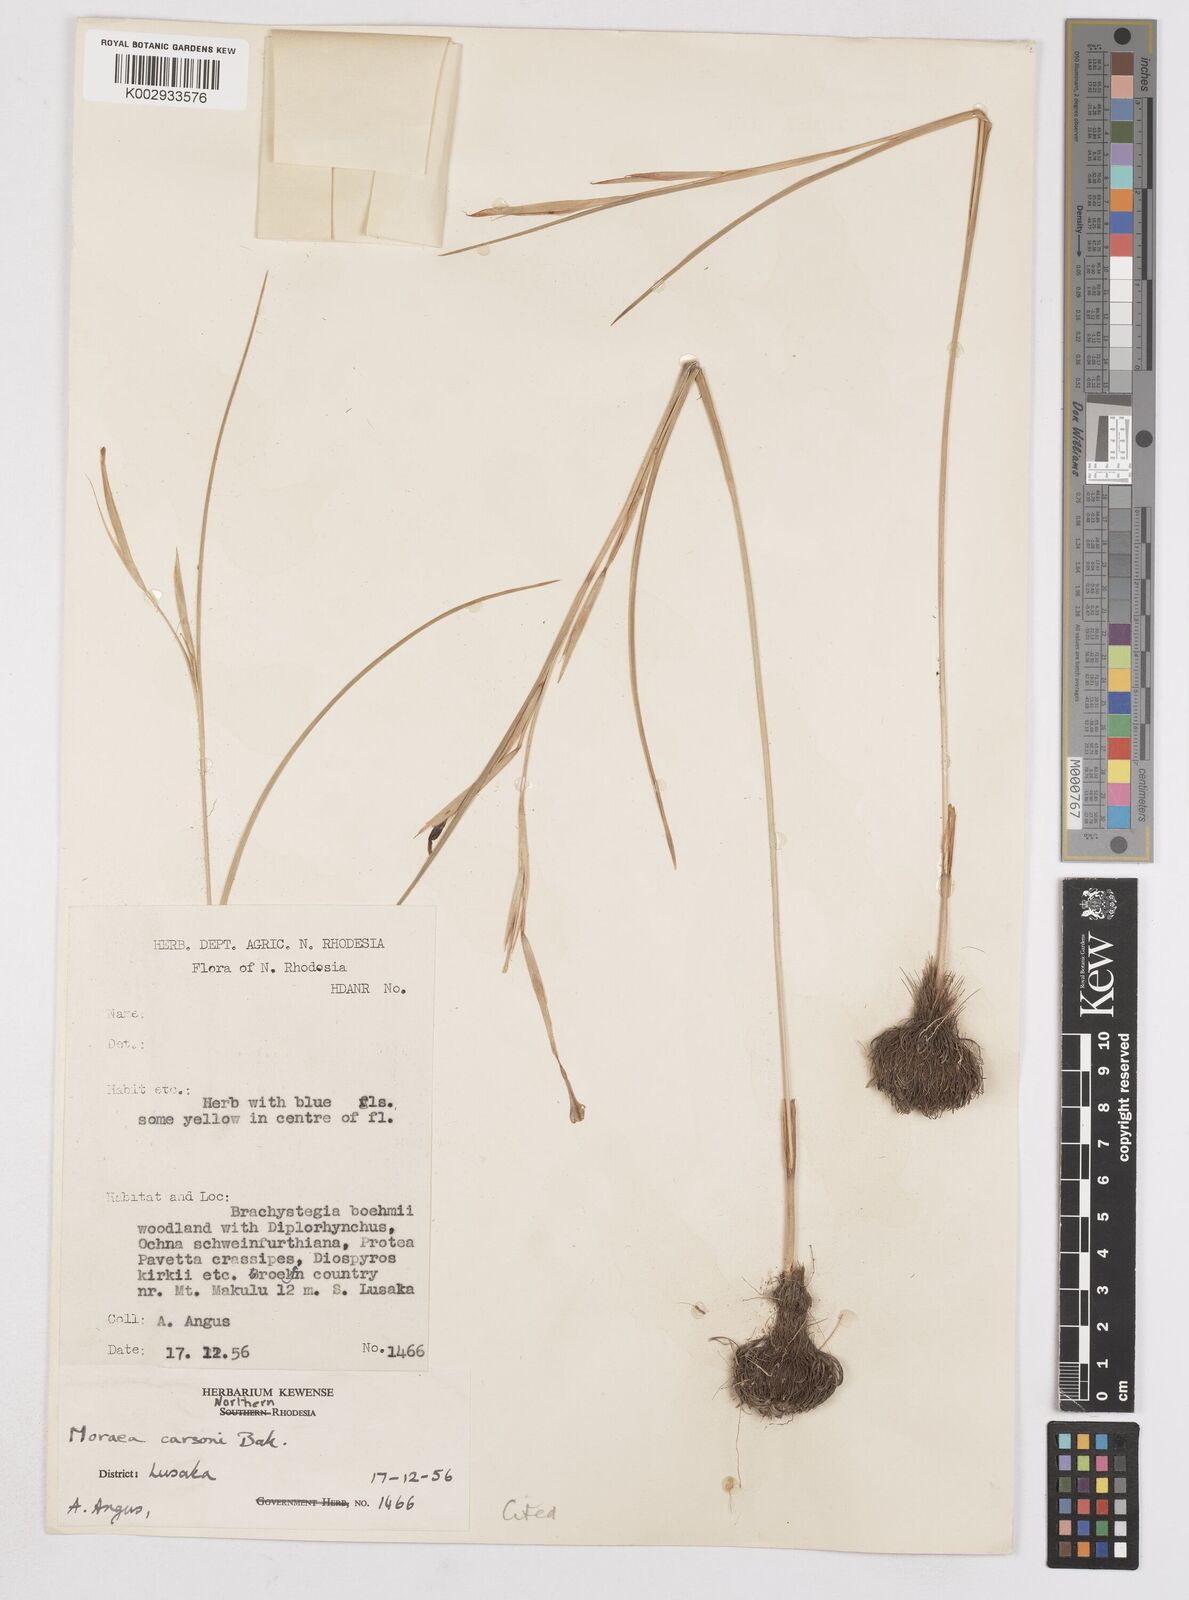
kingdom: Plantae
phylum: Tracheophyta
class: Liliopsida
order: Asparagales
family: Iridaceae
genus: Moraea
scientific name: Moraea carsonii
